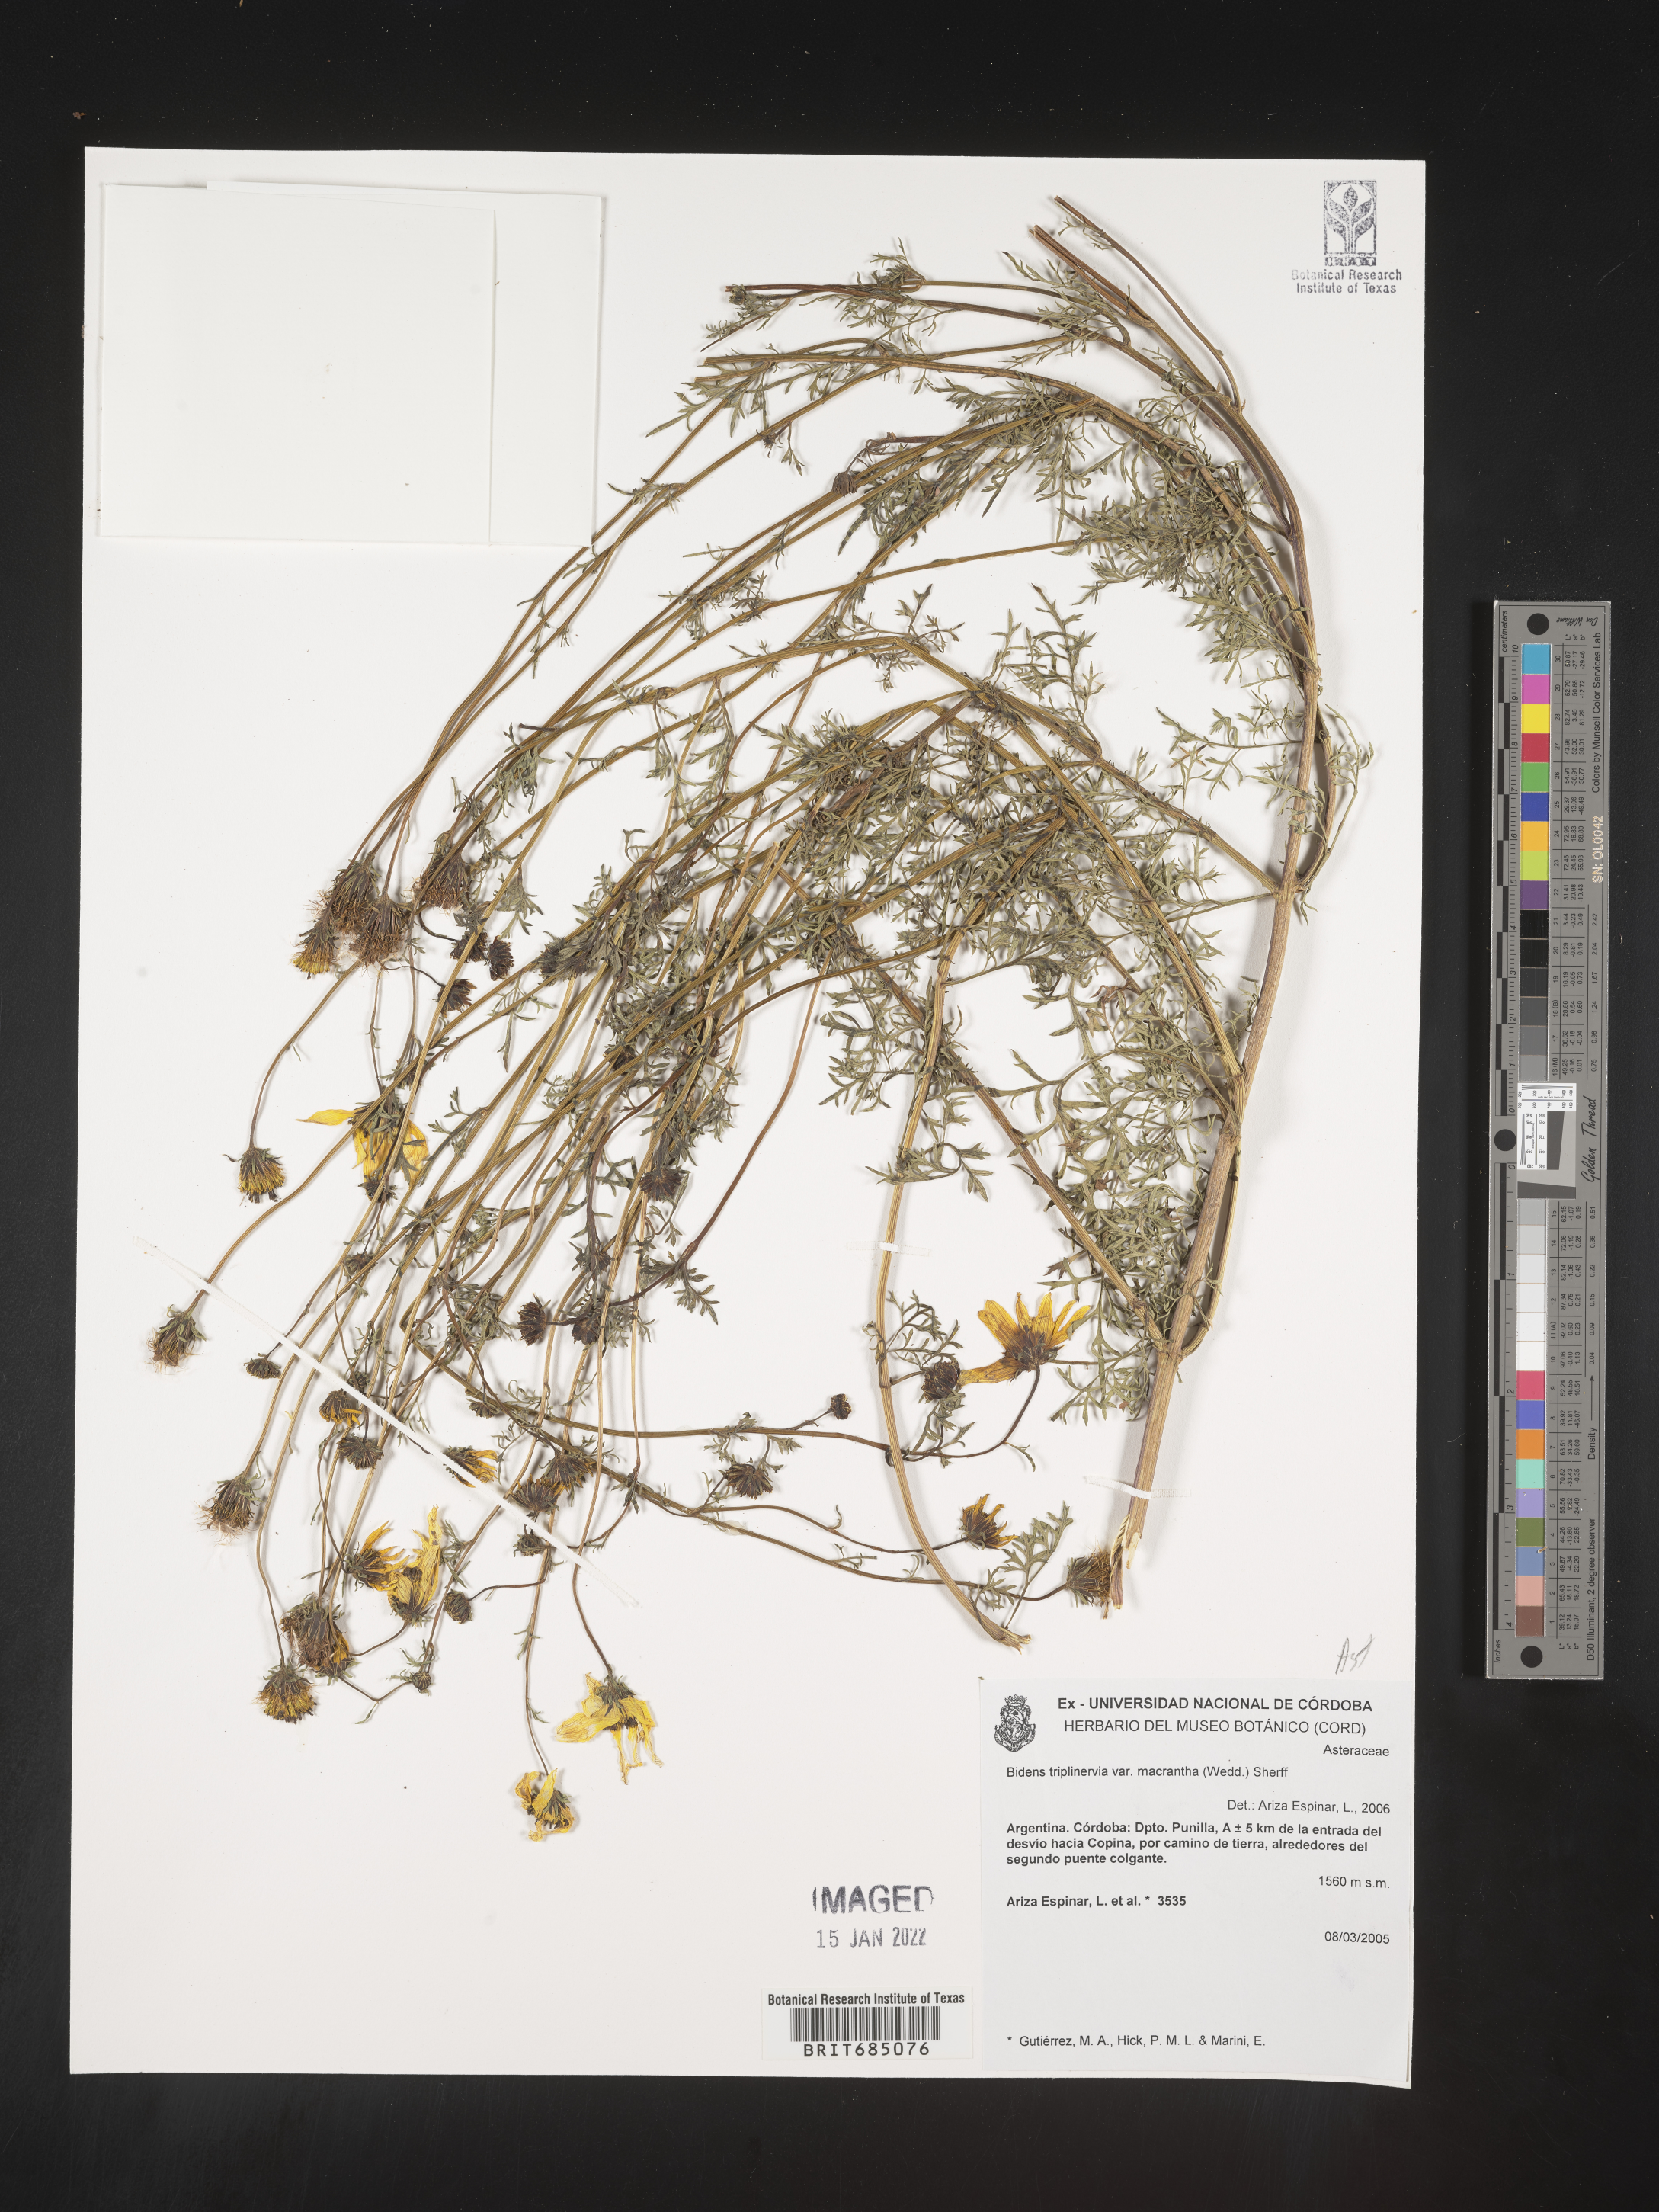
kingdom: Plantae
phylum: Tracheophyta
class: Magnoliopsida
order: Asterales
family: Asteraceae
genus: Bidens
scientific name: Bidens
